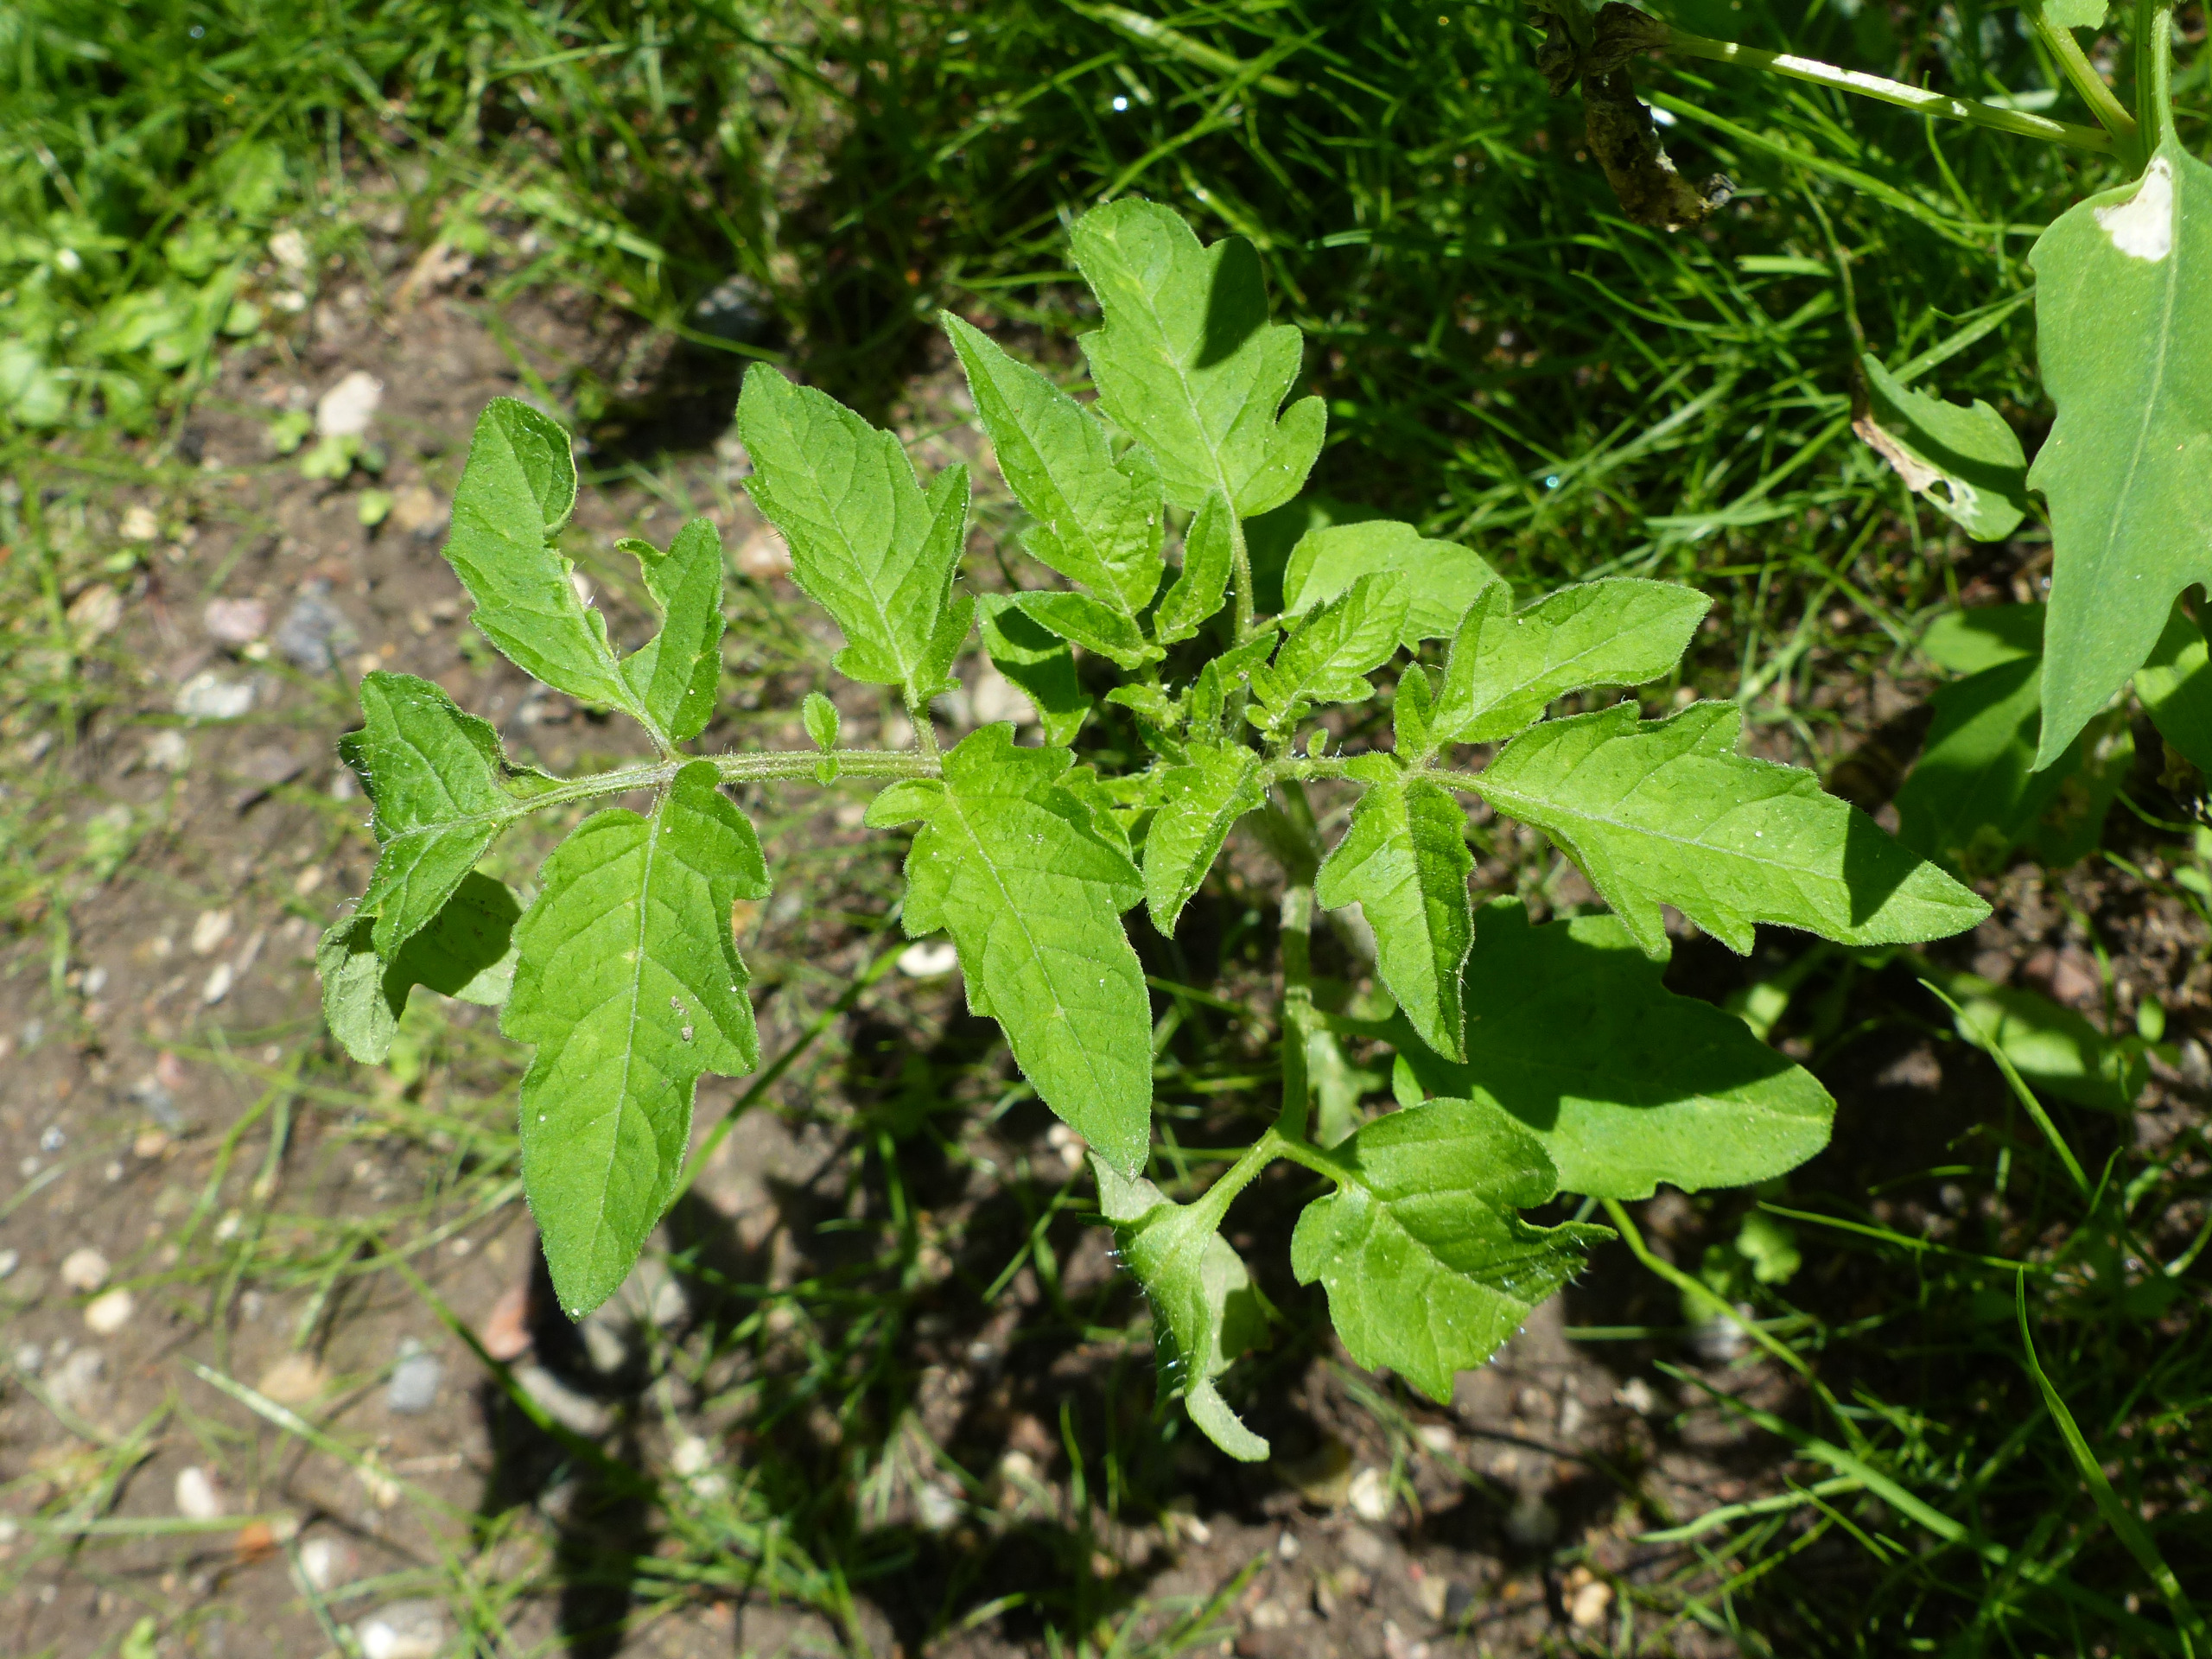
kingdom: Plantae
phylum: Tracheophyta
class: Magnoliopsida
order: Solanales
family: Solanaceae
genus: Solanum
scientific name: Solanum lycopersicum
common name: Tomat
